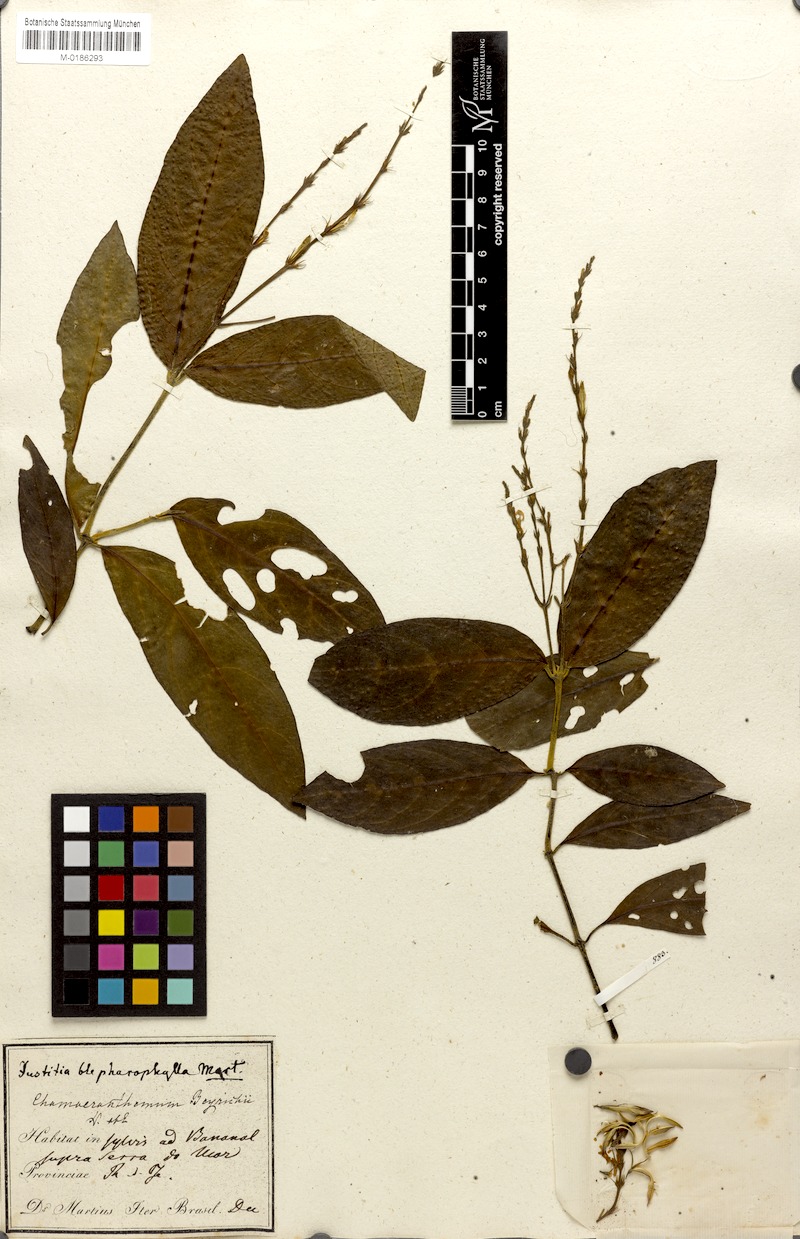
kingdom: Plantae
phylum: Tracheophyta
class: Magnoliopsida
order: Lamiales
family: Acanthaceae
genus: Chamaeranthemum
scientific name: Chamaeranthemum beyrichii
